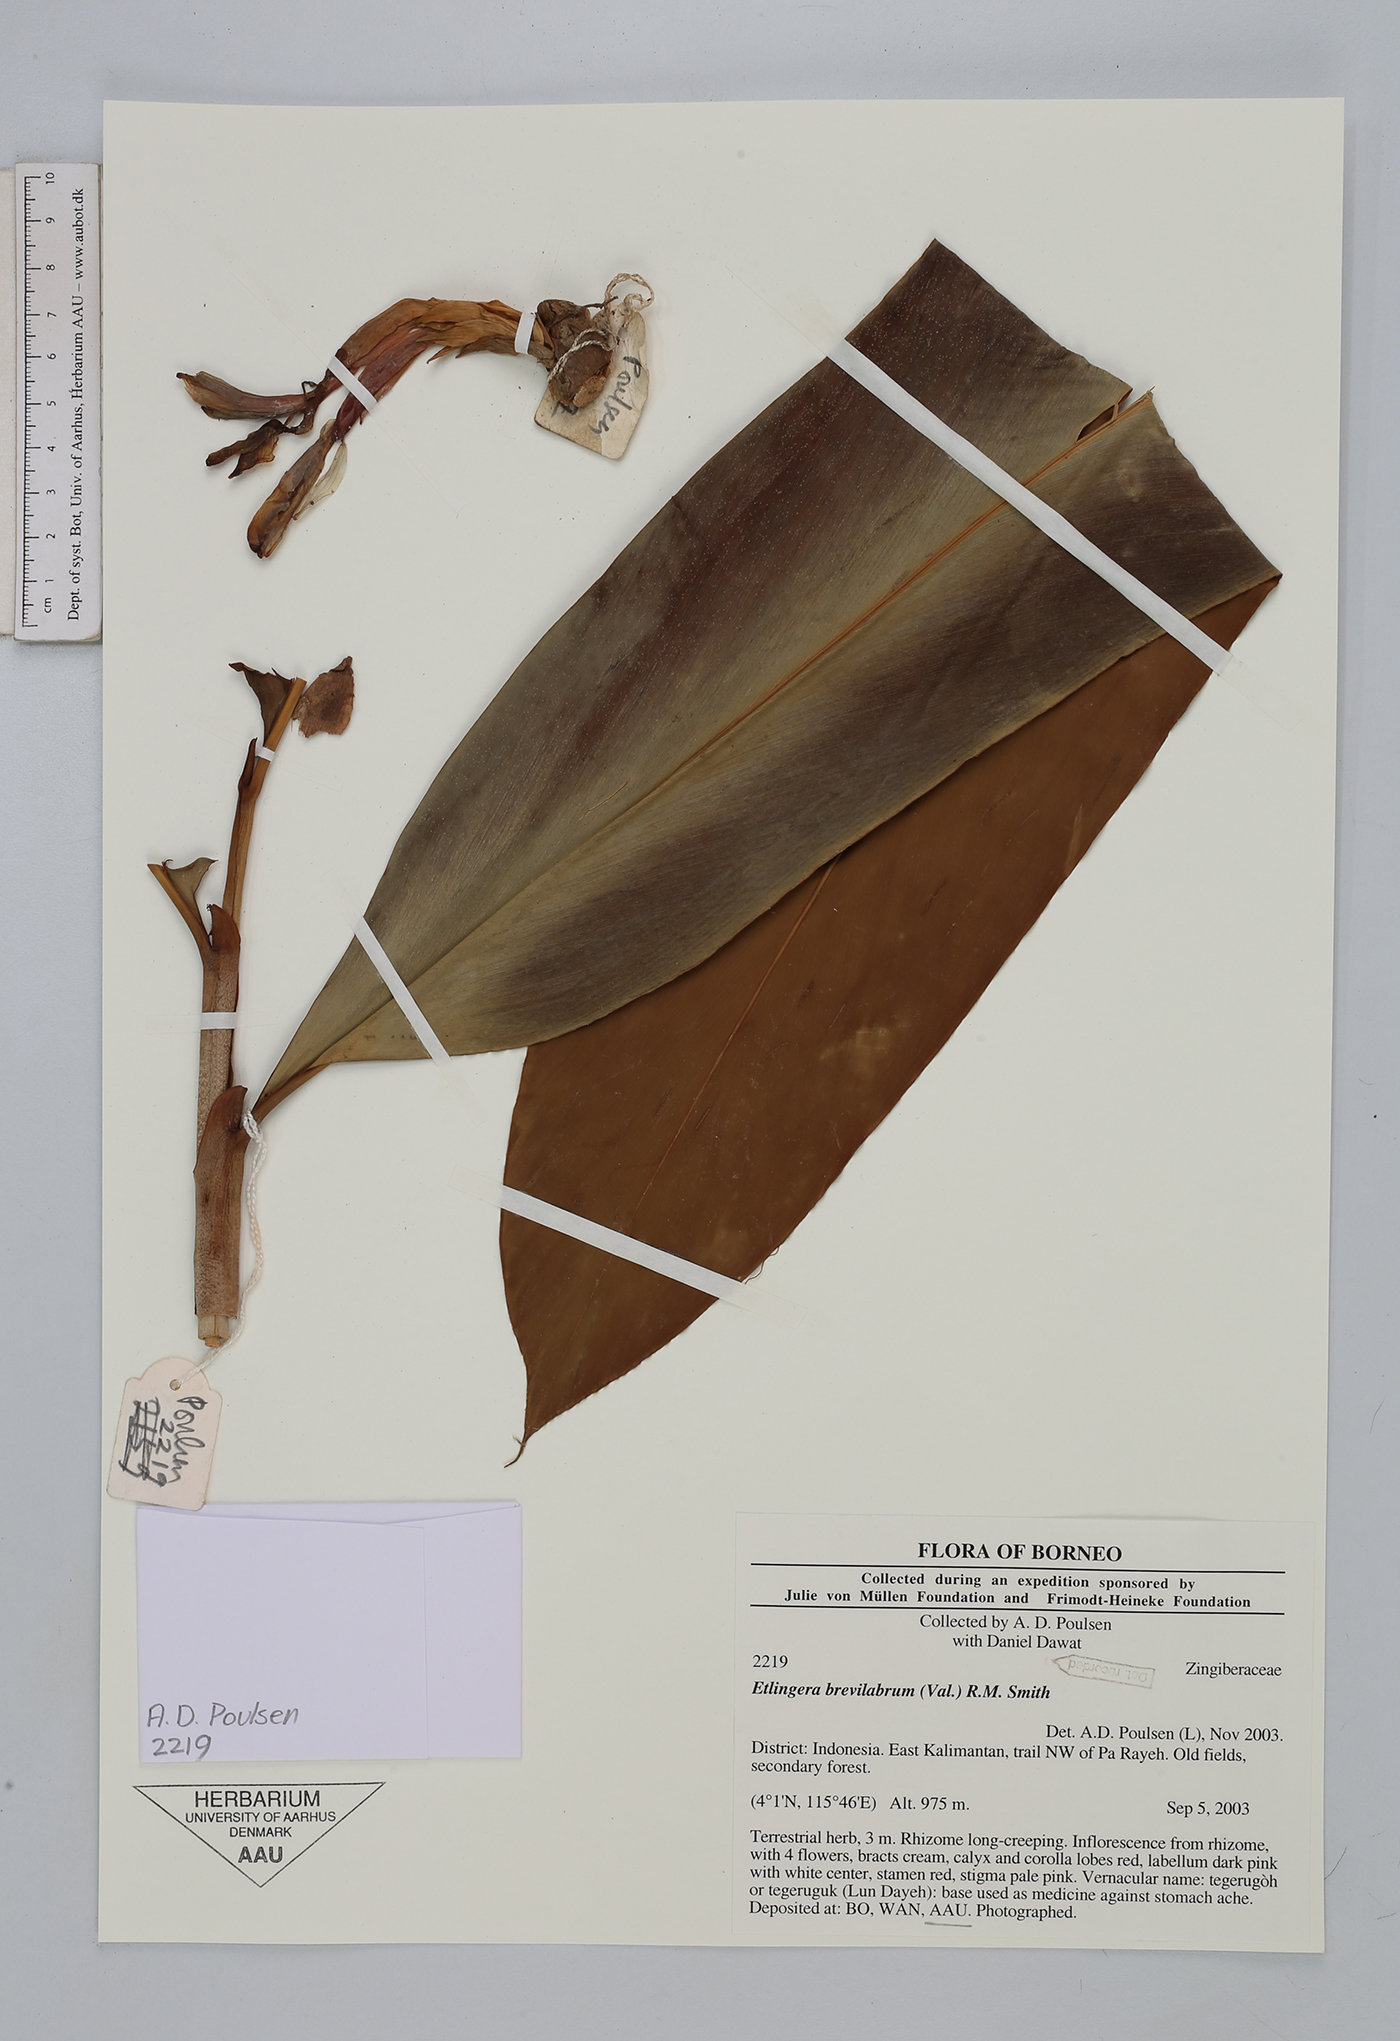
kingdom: Plantae
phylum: Tracheophyta
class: Liliopsida
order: Zingiberales
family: Zingiberaceae
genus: Etlingera
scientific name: Etlingera brevilabrum
